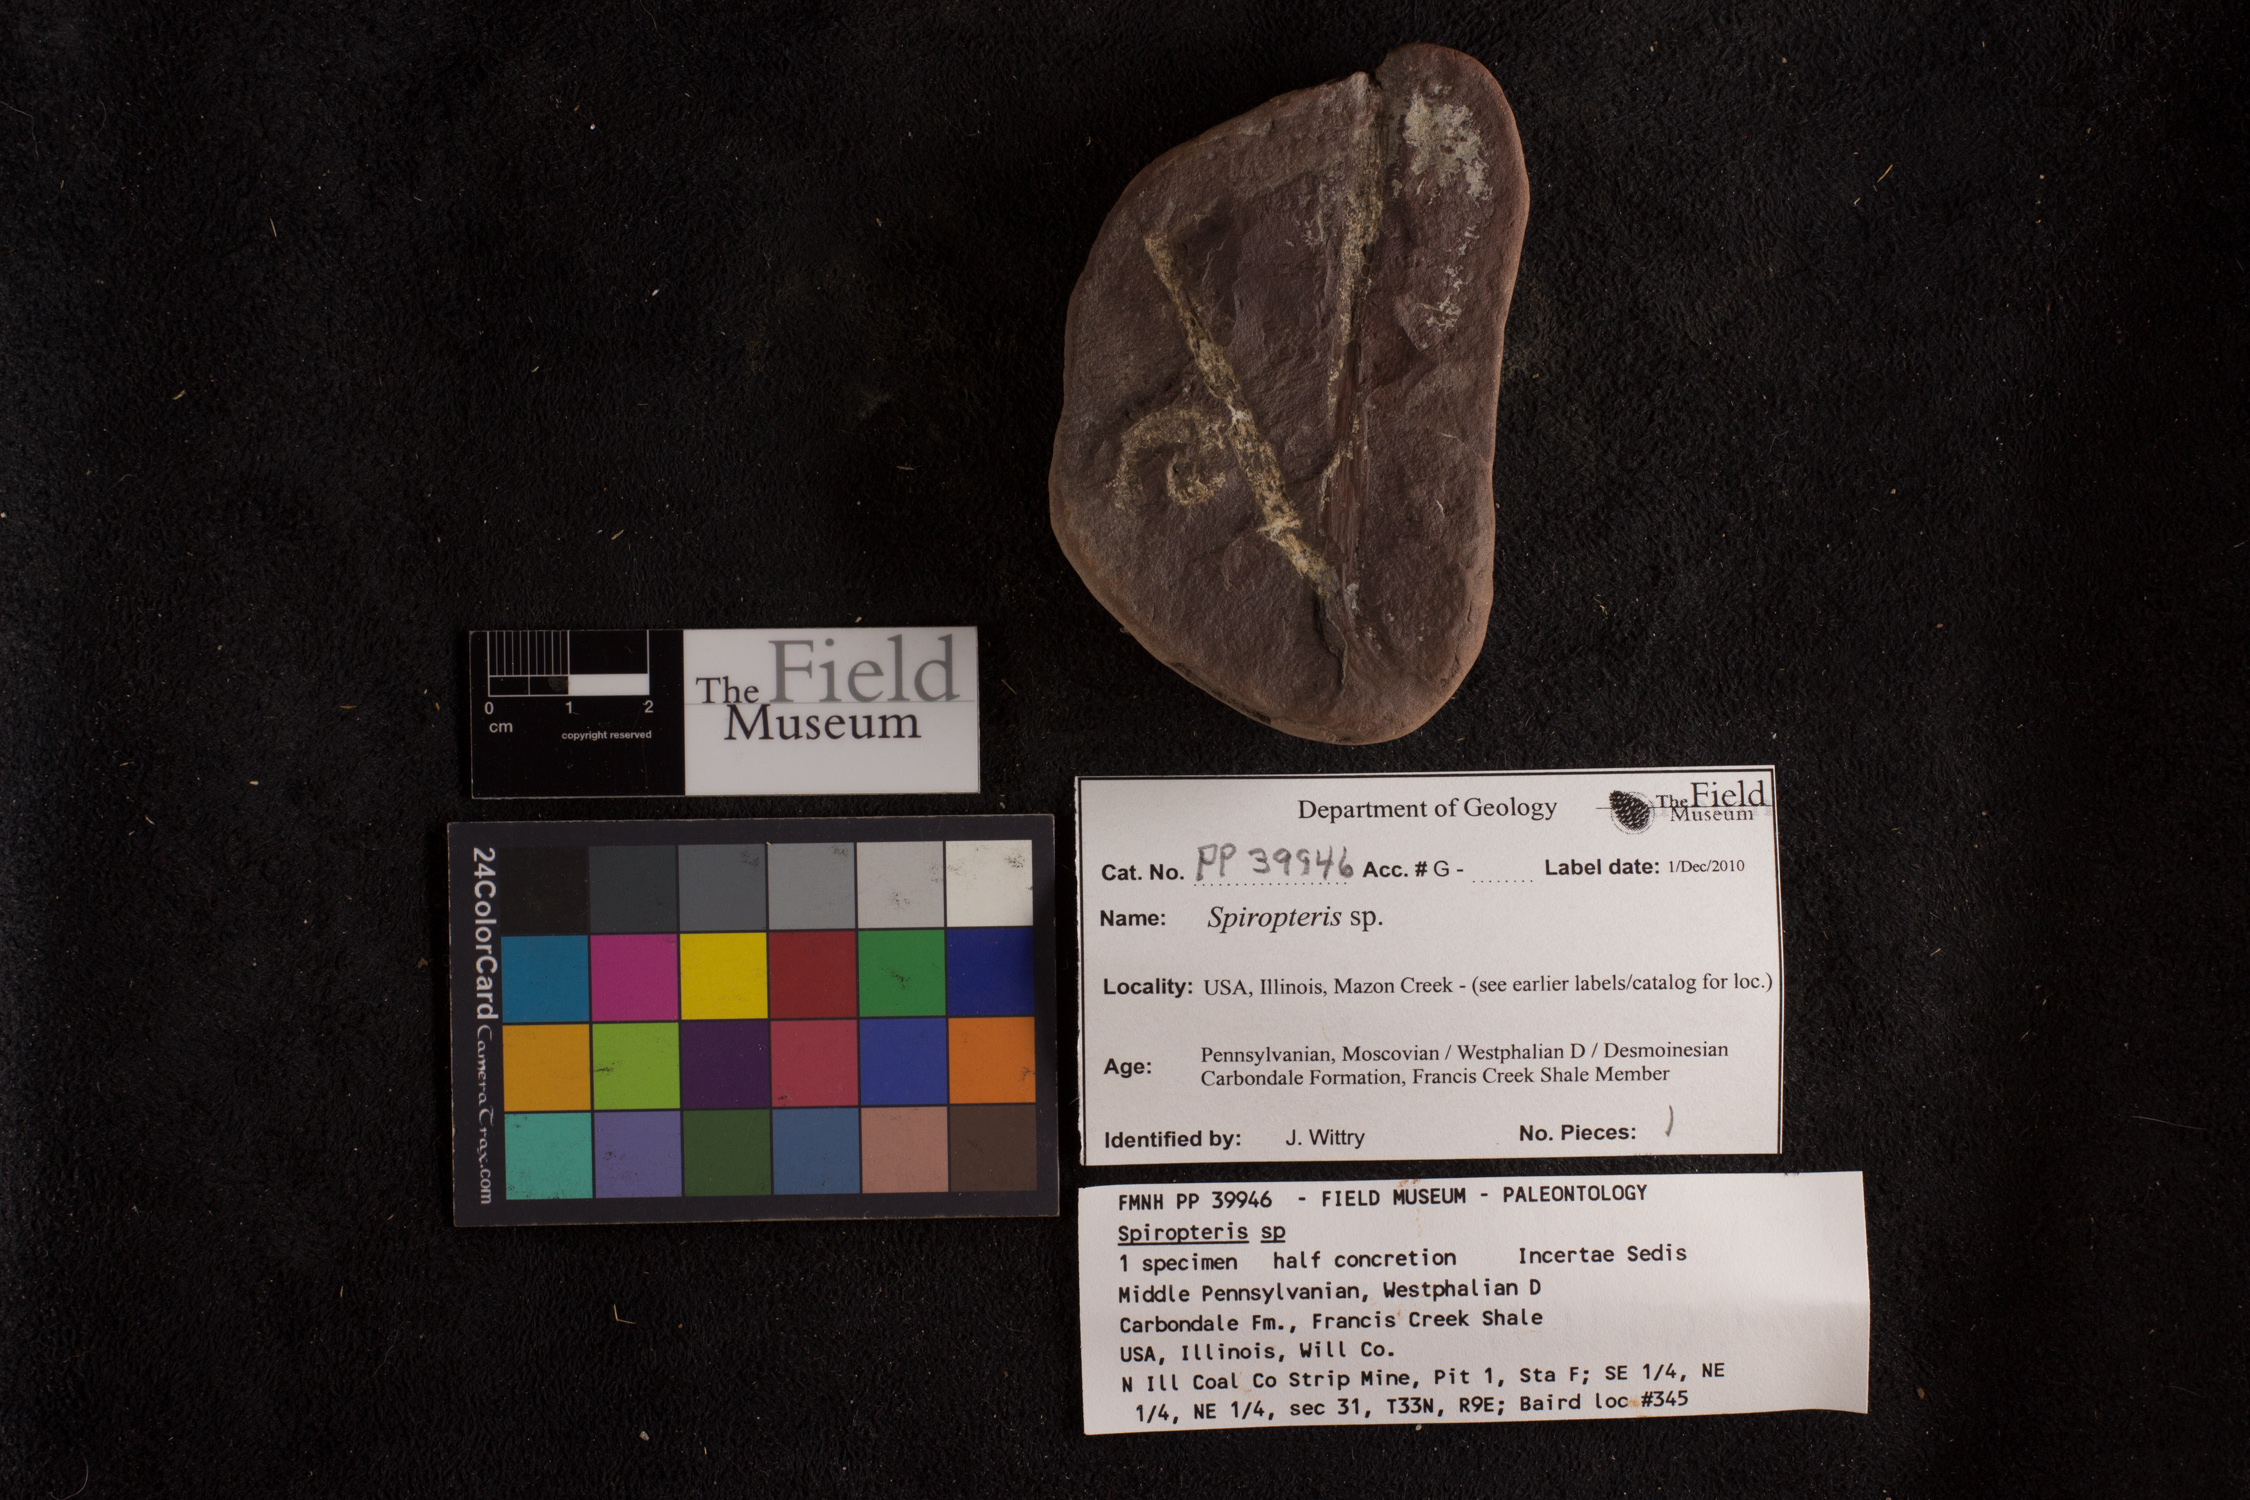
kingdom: Plantae
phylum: Tracheophyta
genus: Spiropteris
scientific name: Spiropteris
